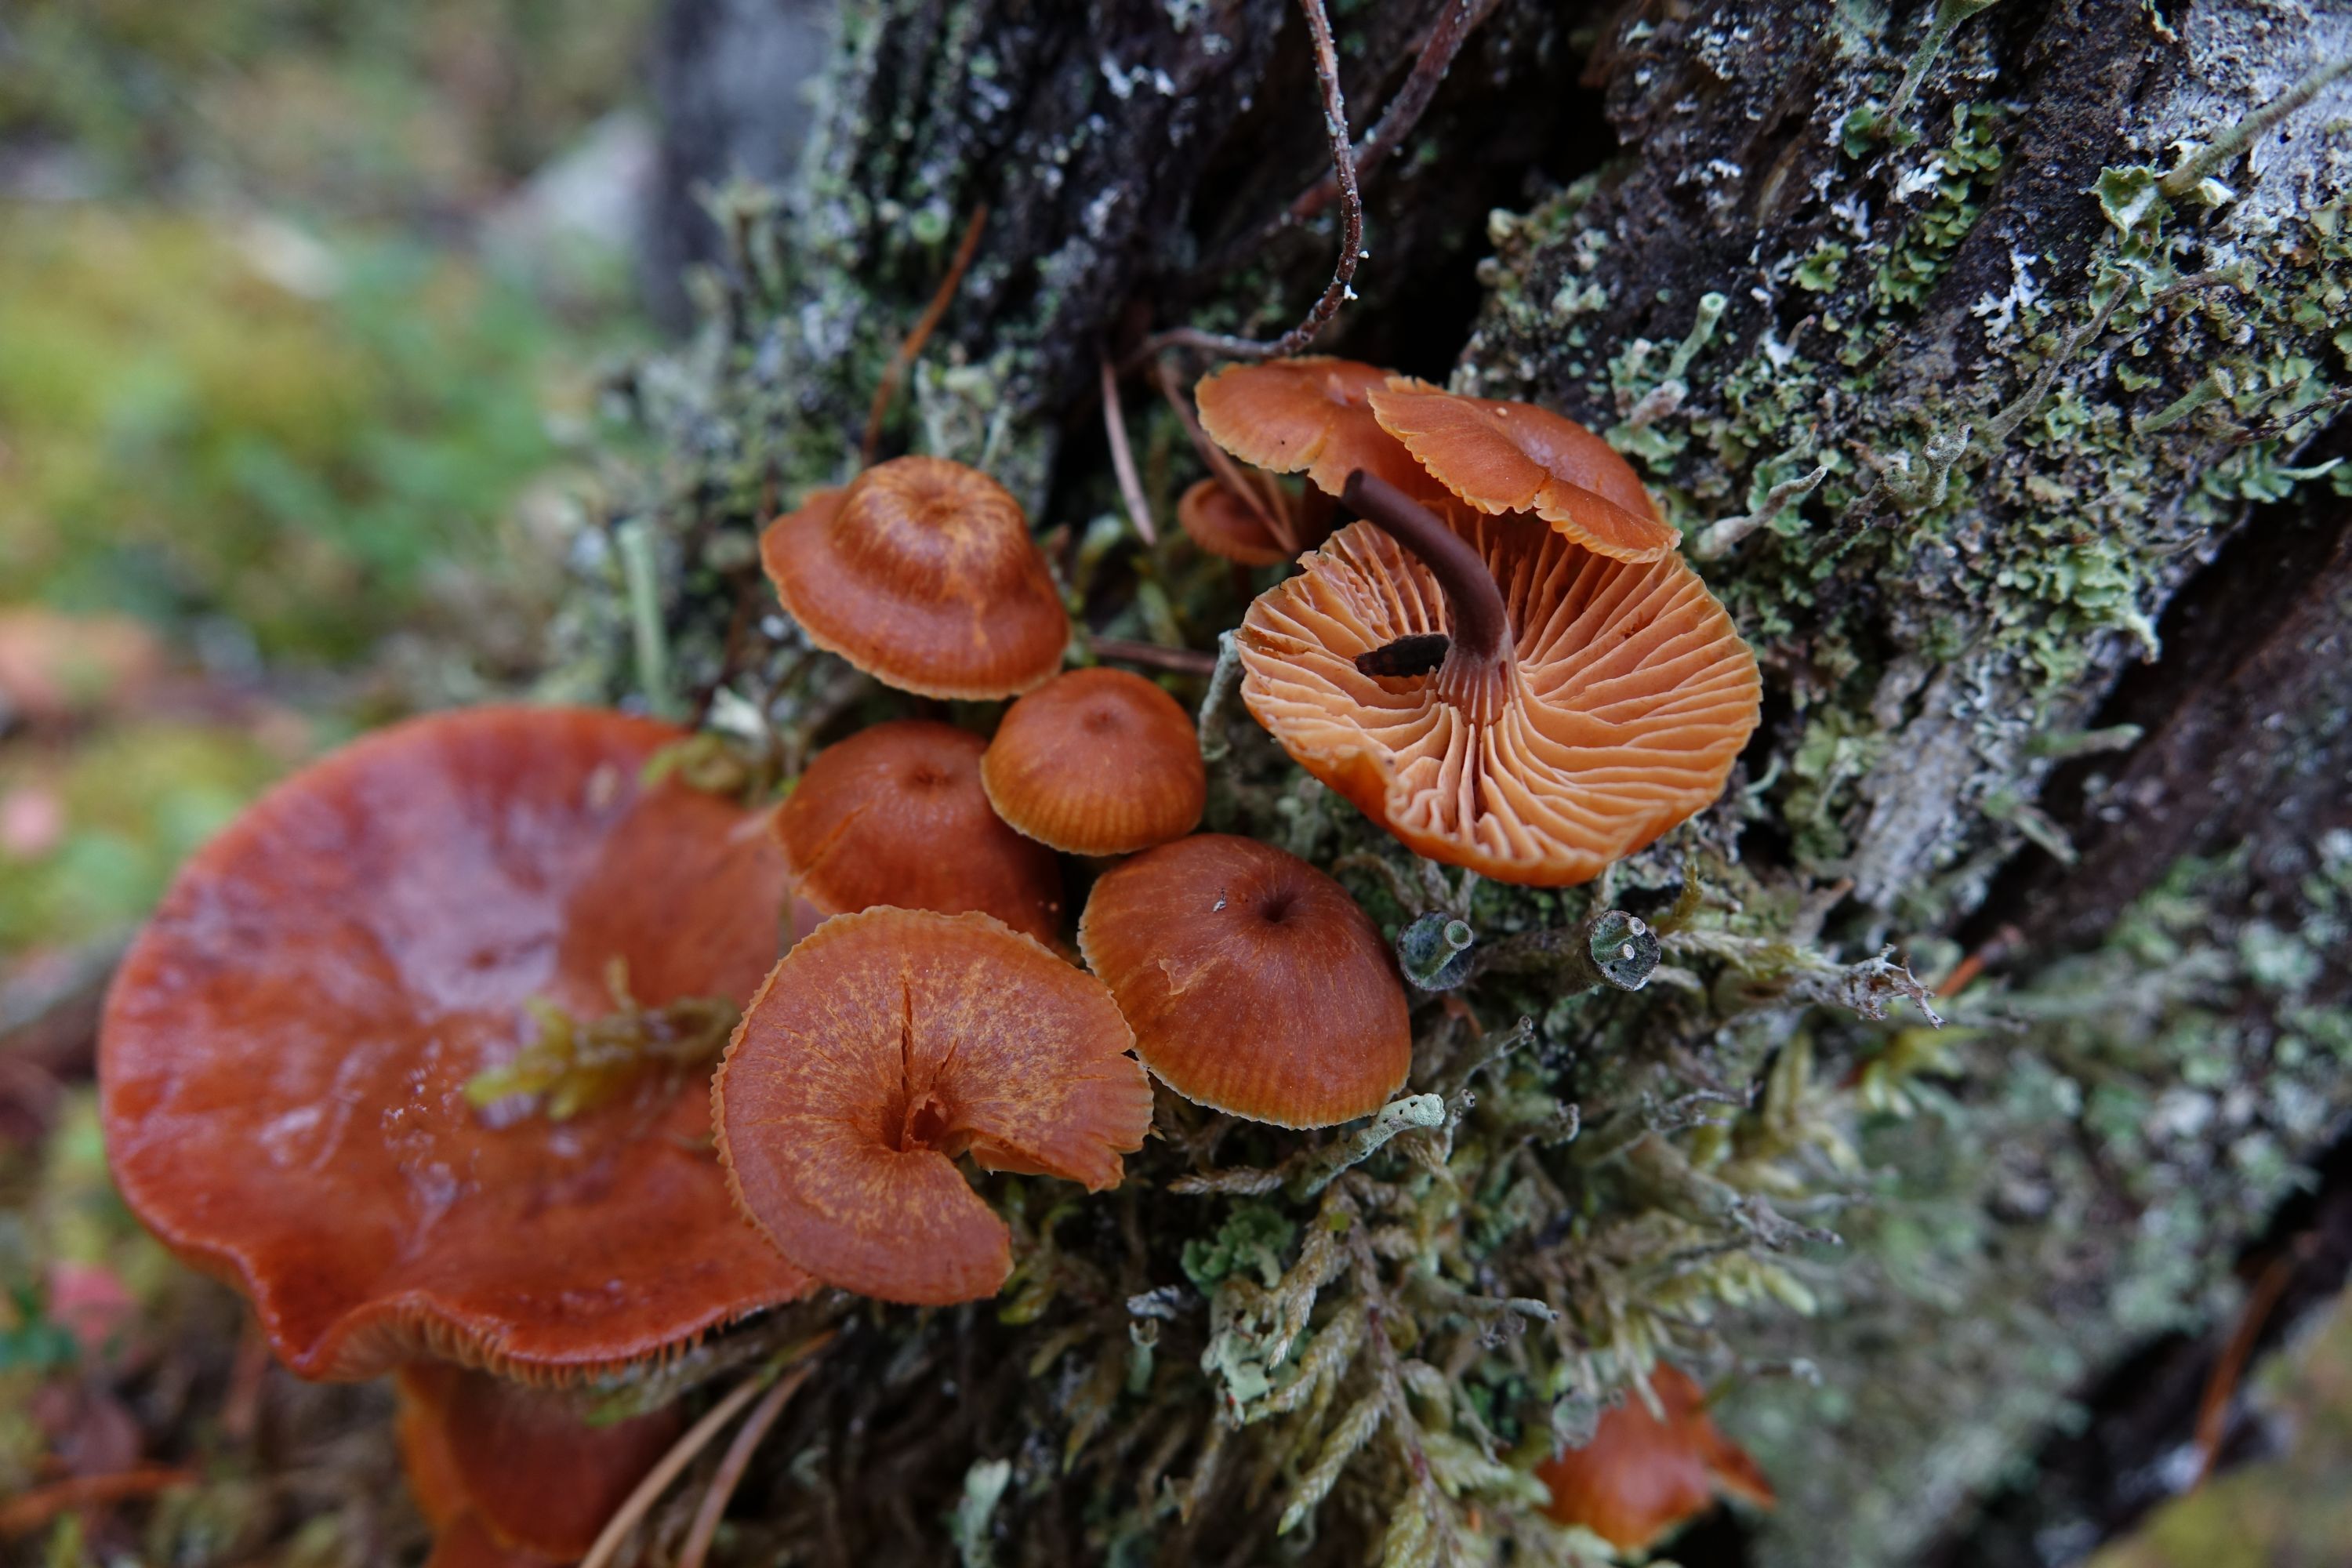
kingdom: Fungi
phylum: Basidiomycota
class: Agaricomycetes
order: Agaricales
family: Mycenaceae
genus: Xeromphalina
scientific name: Xeromphalina campanella
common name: Pinewood gingertail
